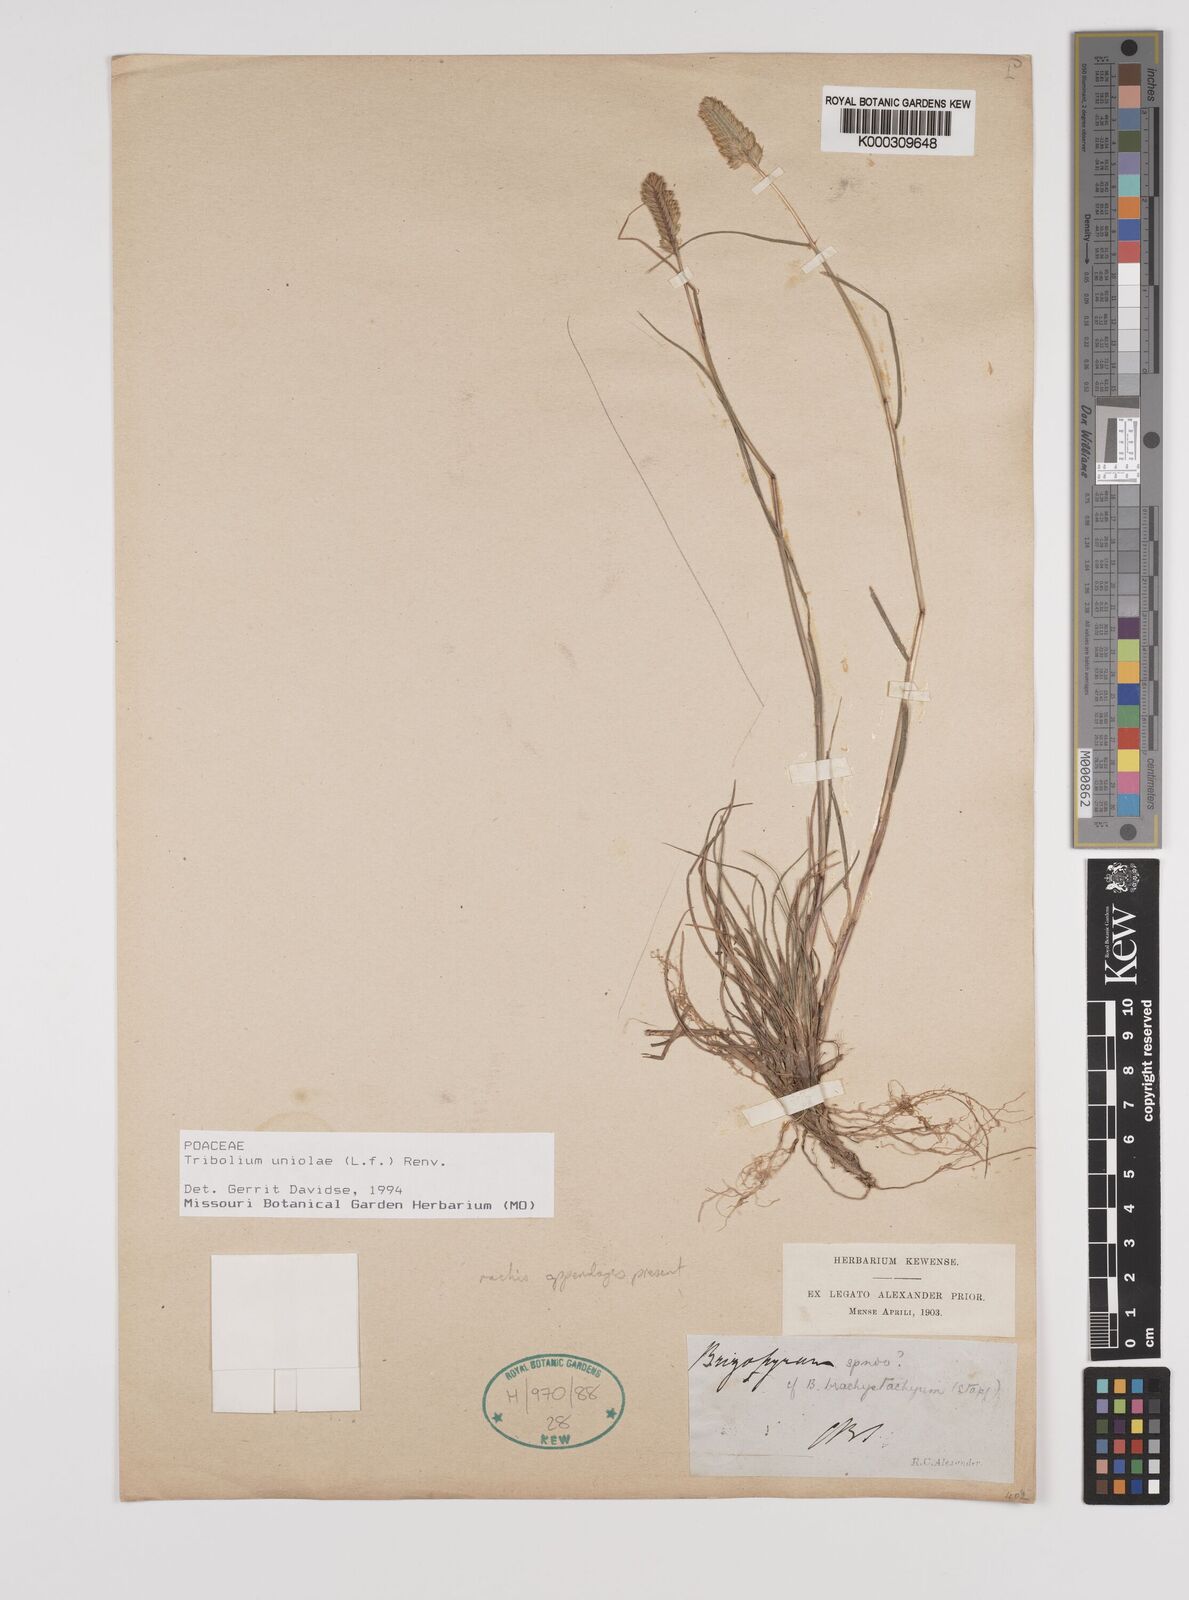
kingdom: Plantae
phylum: Tracheophyta
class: Liliopsida
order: Poales
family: Poaceae
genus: Tribolium
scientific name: Tribolium uniolae
